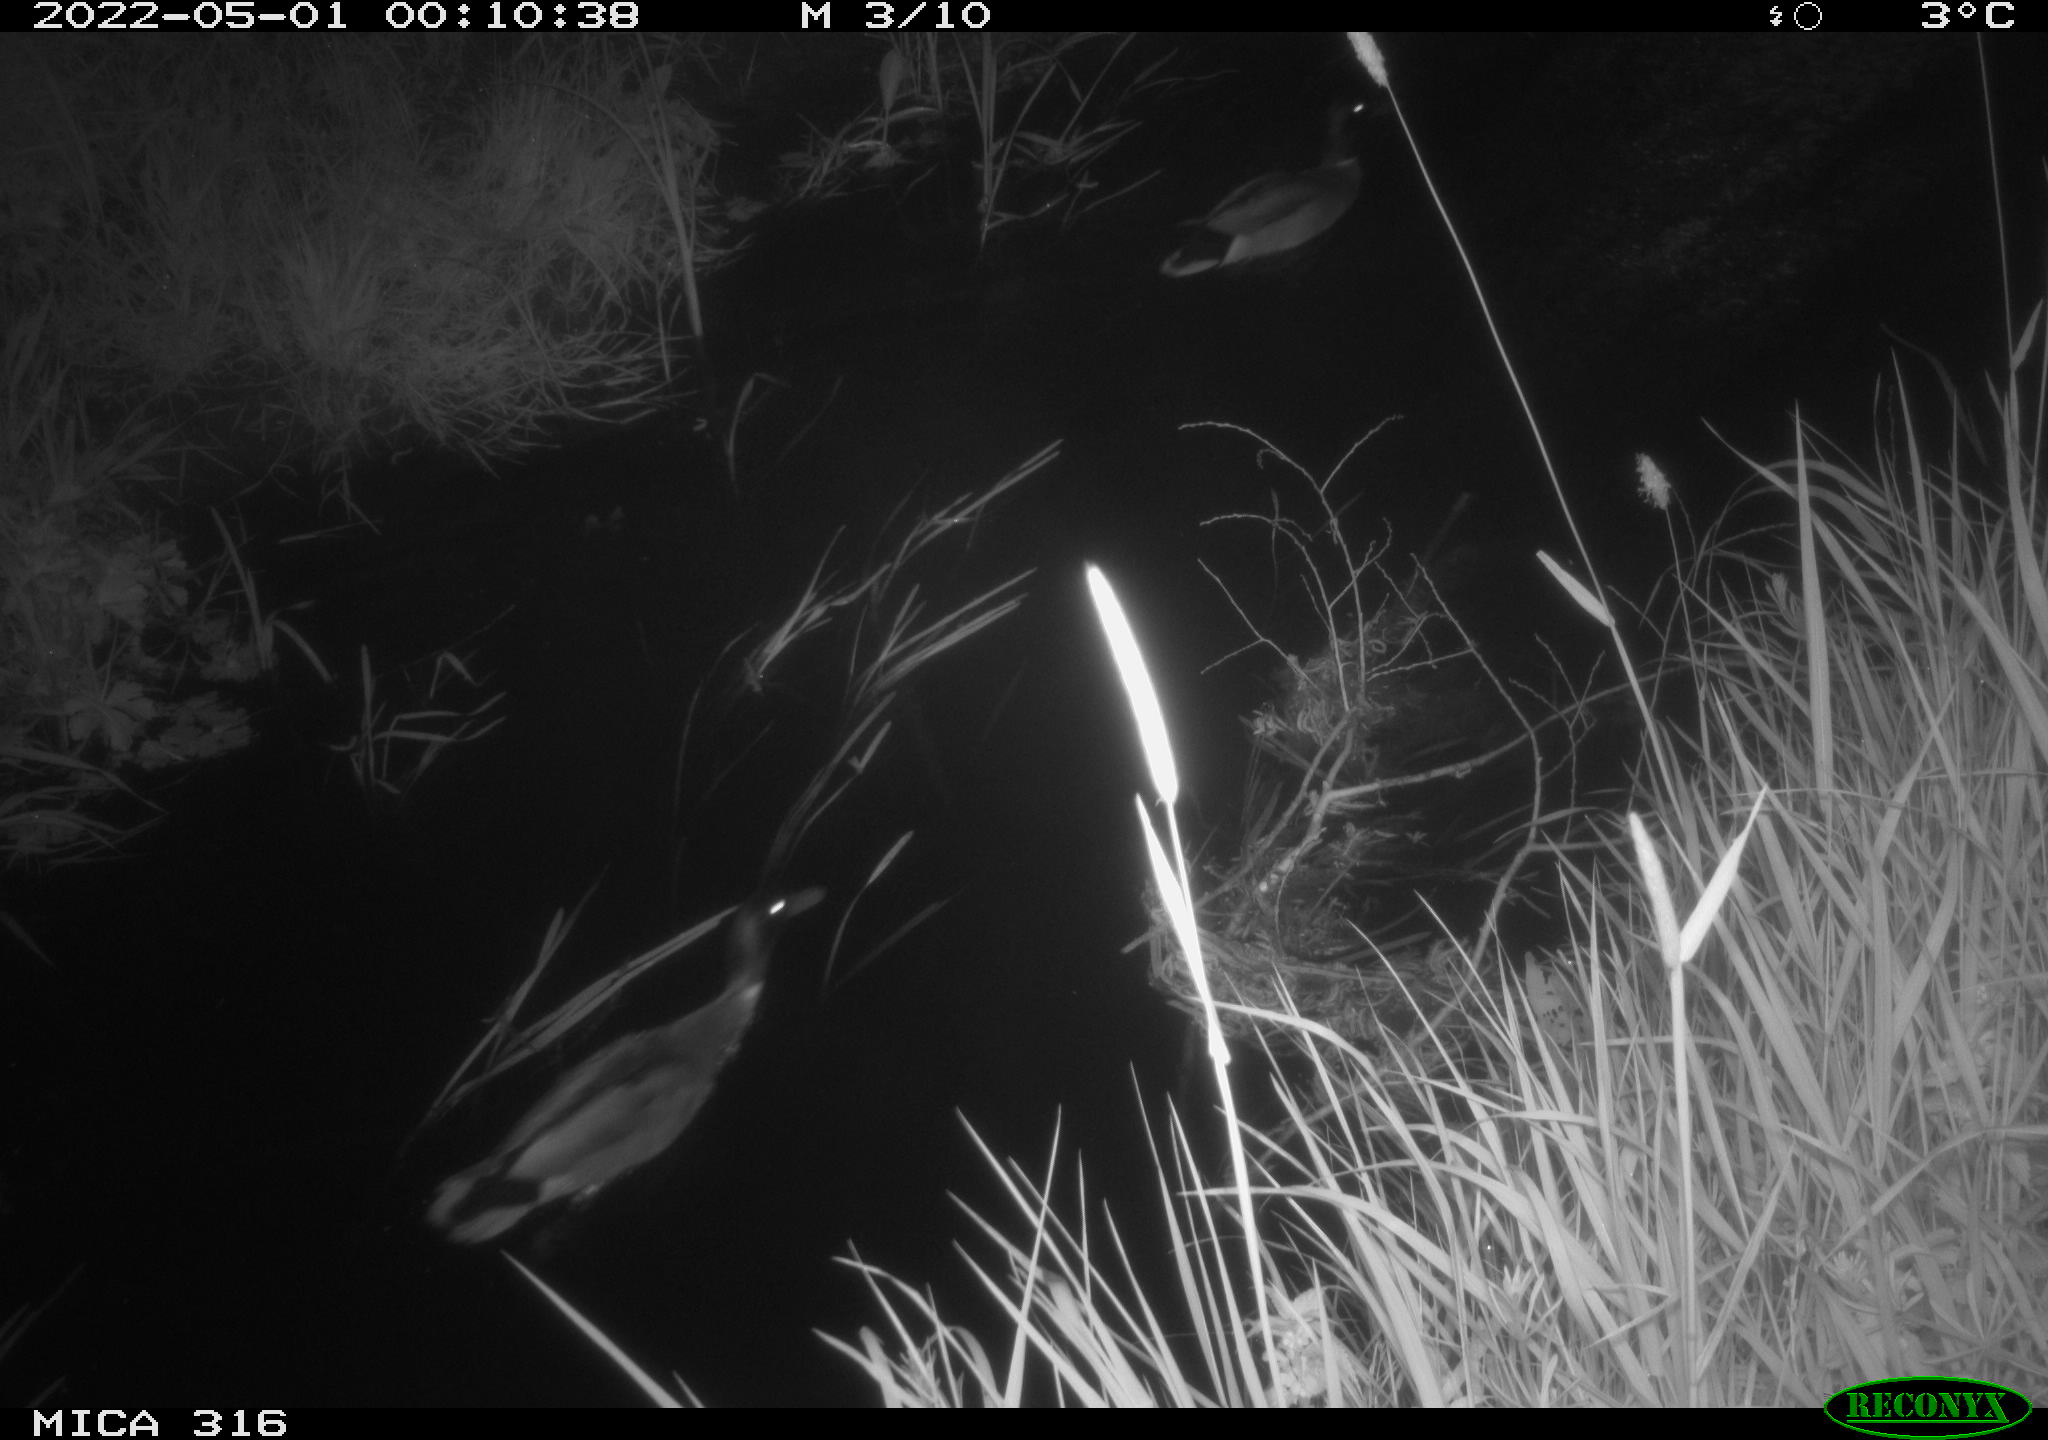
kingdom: Animalia
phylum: Chordata
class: Aves
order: Pelecaniformes
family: Ardeidae
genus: Ardea
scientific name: Ardea
